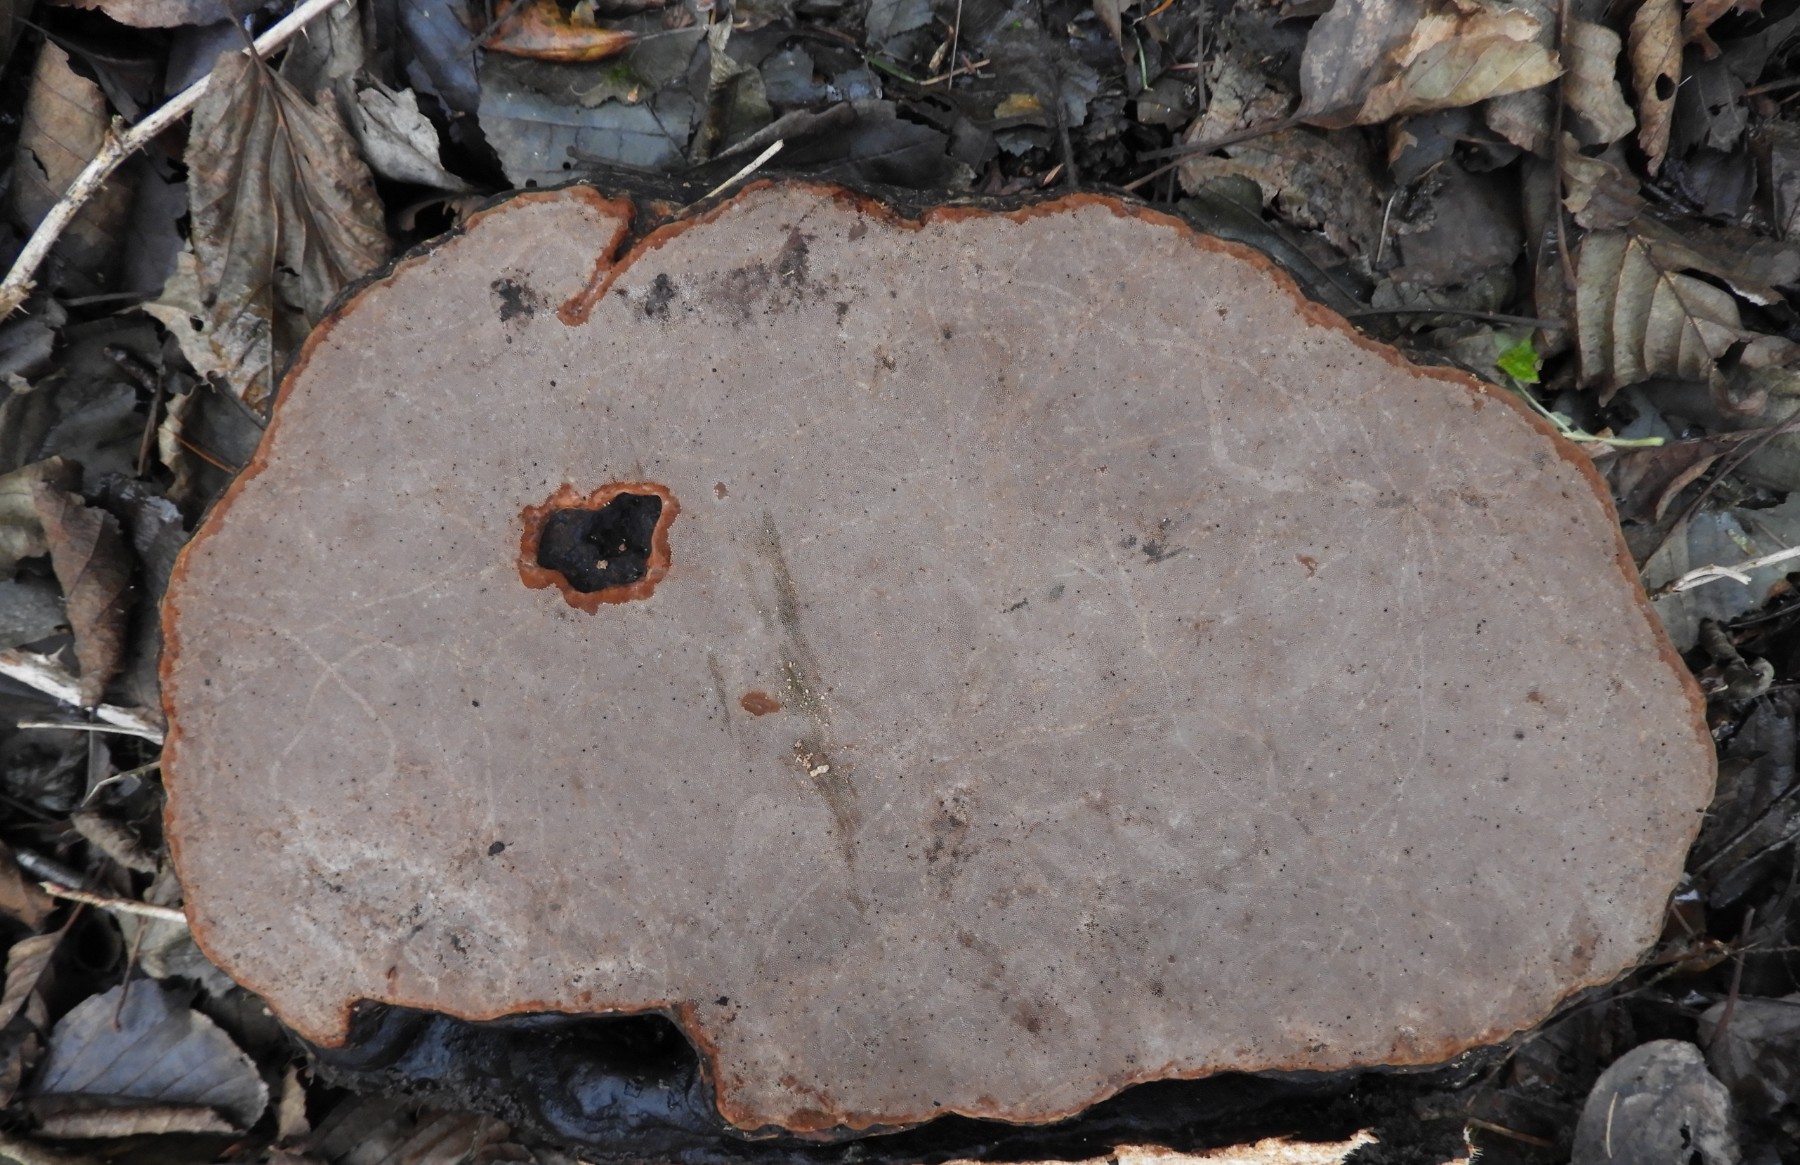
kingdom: Fungi
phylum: Basidiomycota
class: Agaricomycetes
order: Polyporales
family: Polyporaceae
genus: Fomes
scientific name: Fomes fomentarius
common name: tøndersvamp
